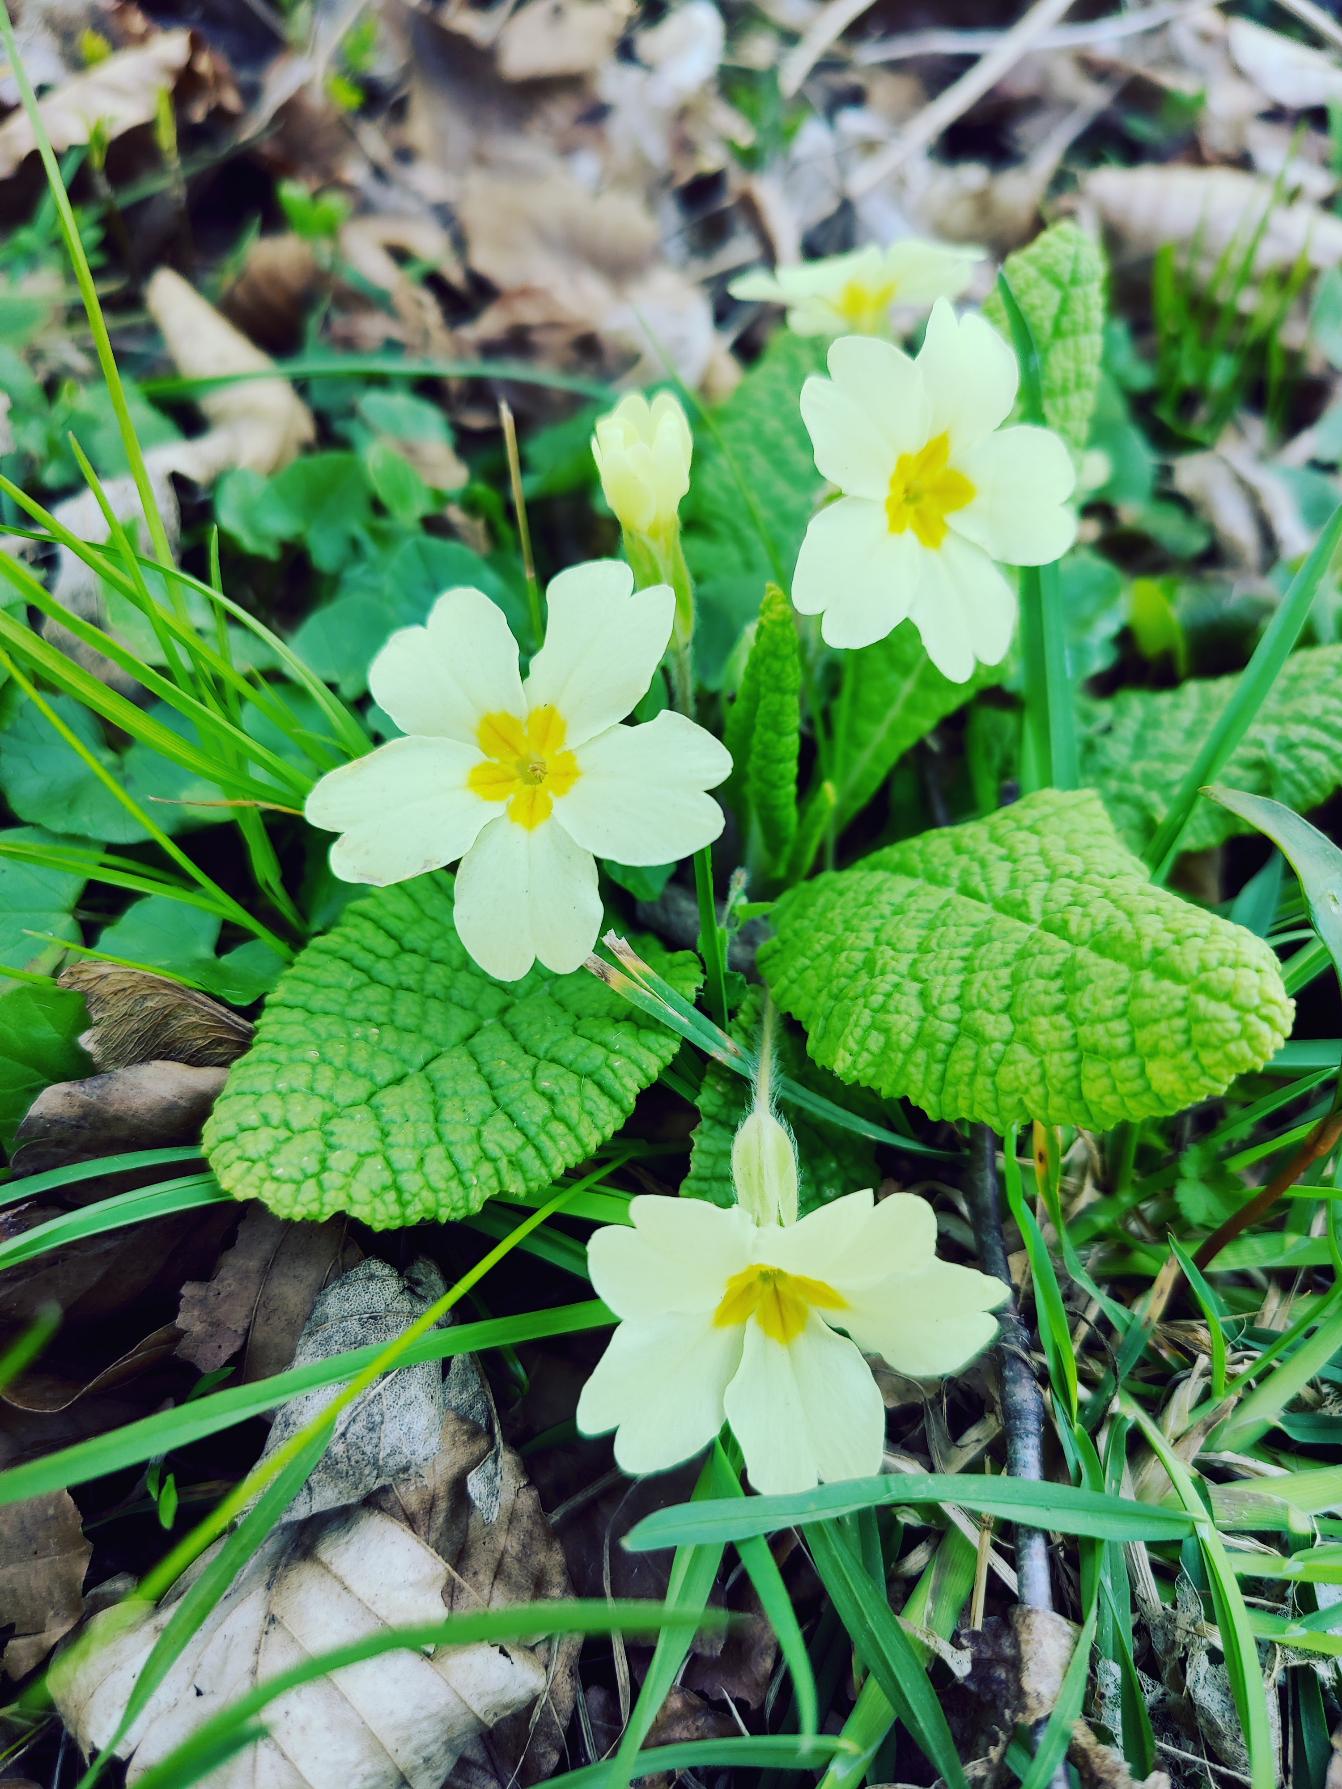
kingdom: Plantae
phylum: Tracheophyta
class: Magnoliopsida
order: Ericales
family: Primulaceae
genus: Primula
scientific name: Primula vulgaris
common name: Storblomstret kodriver
